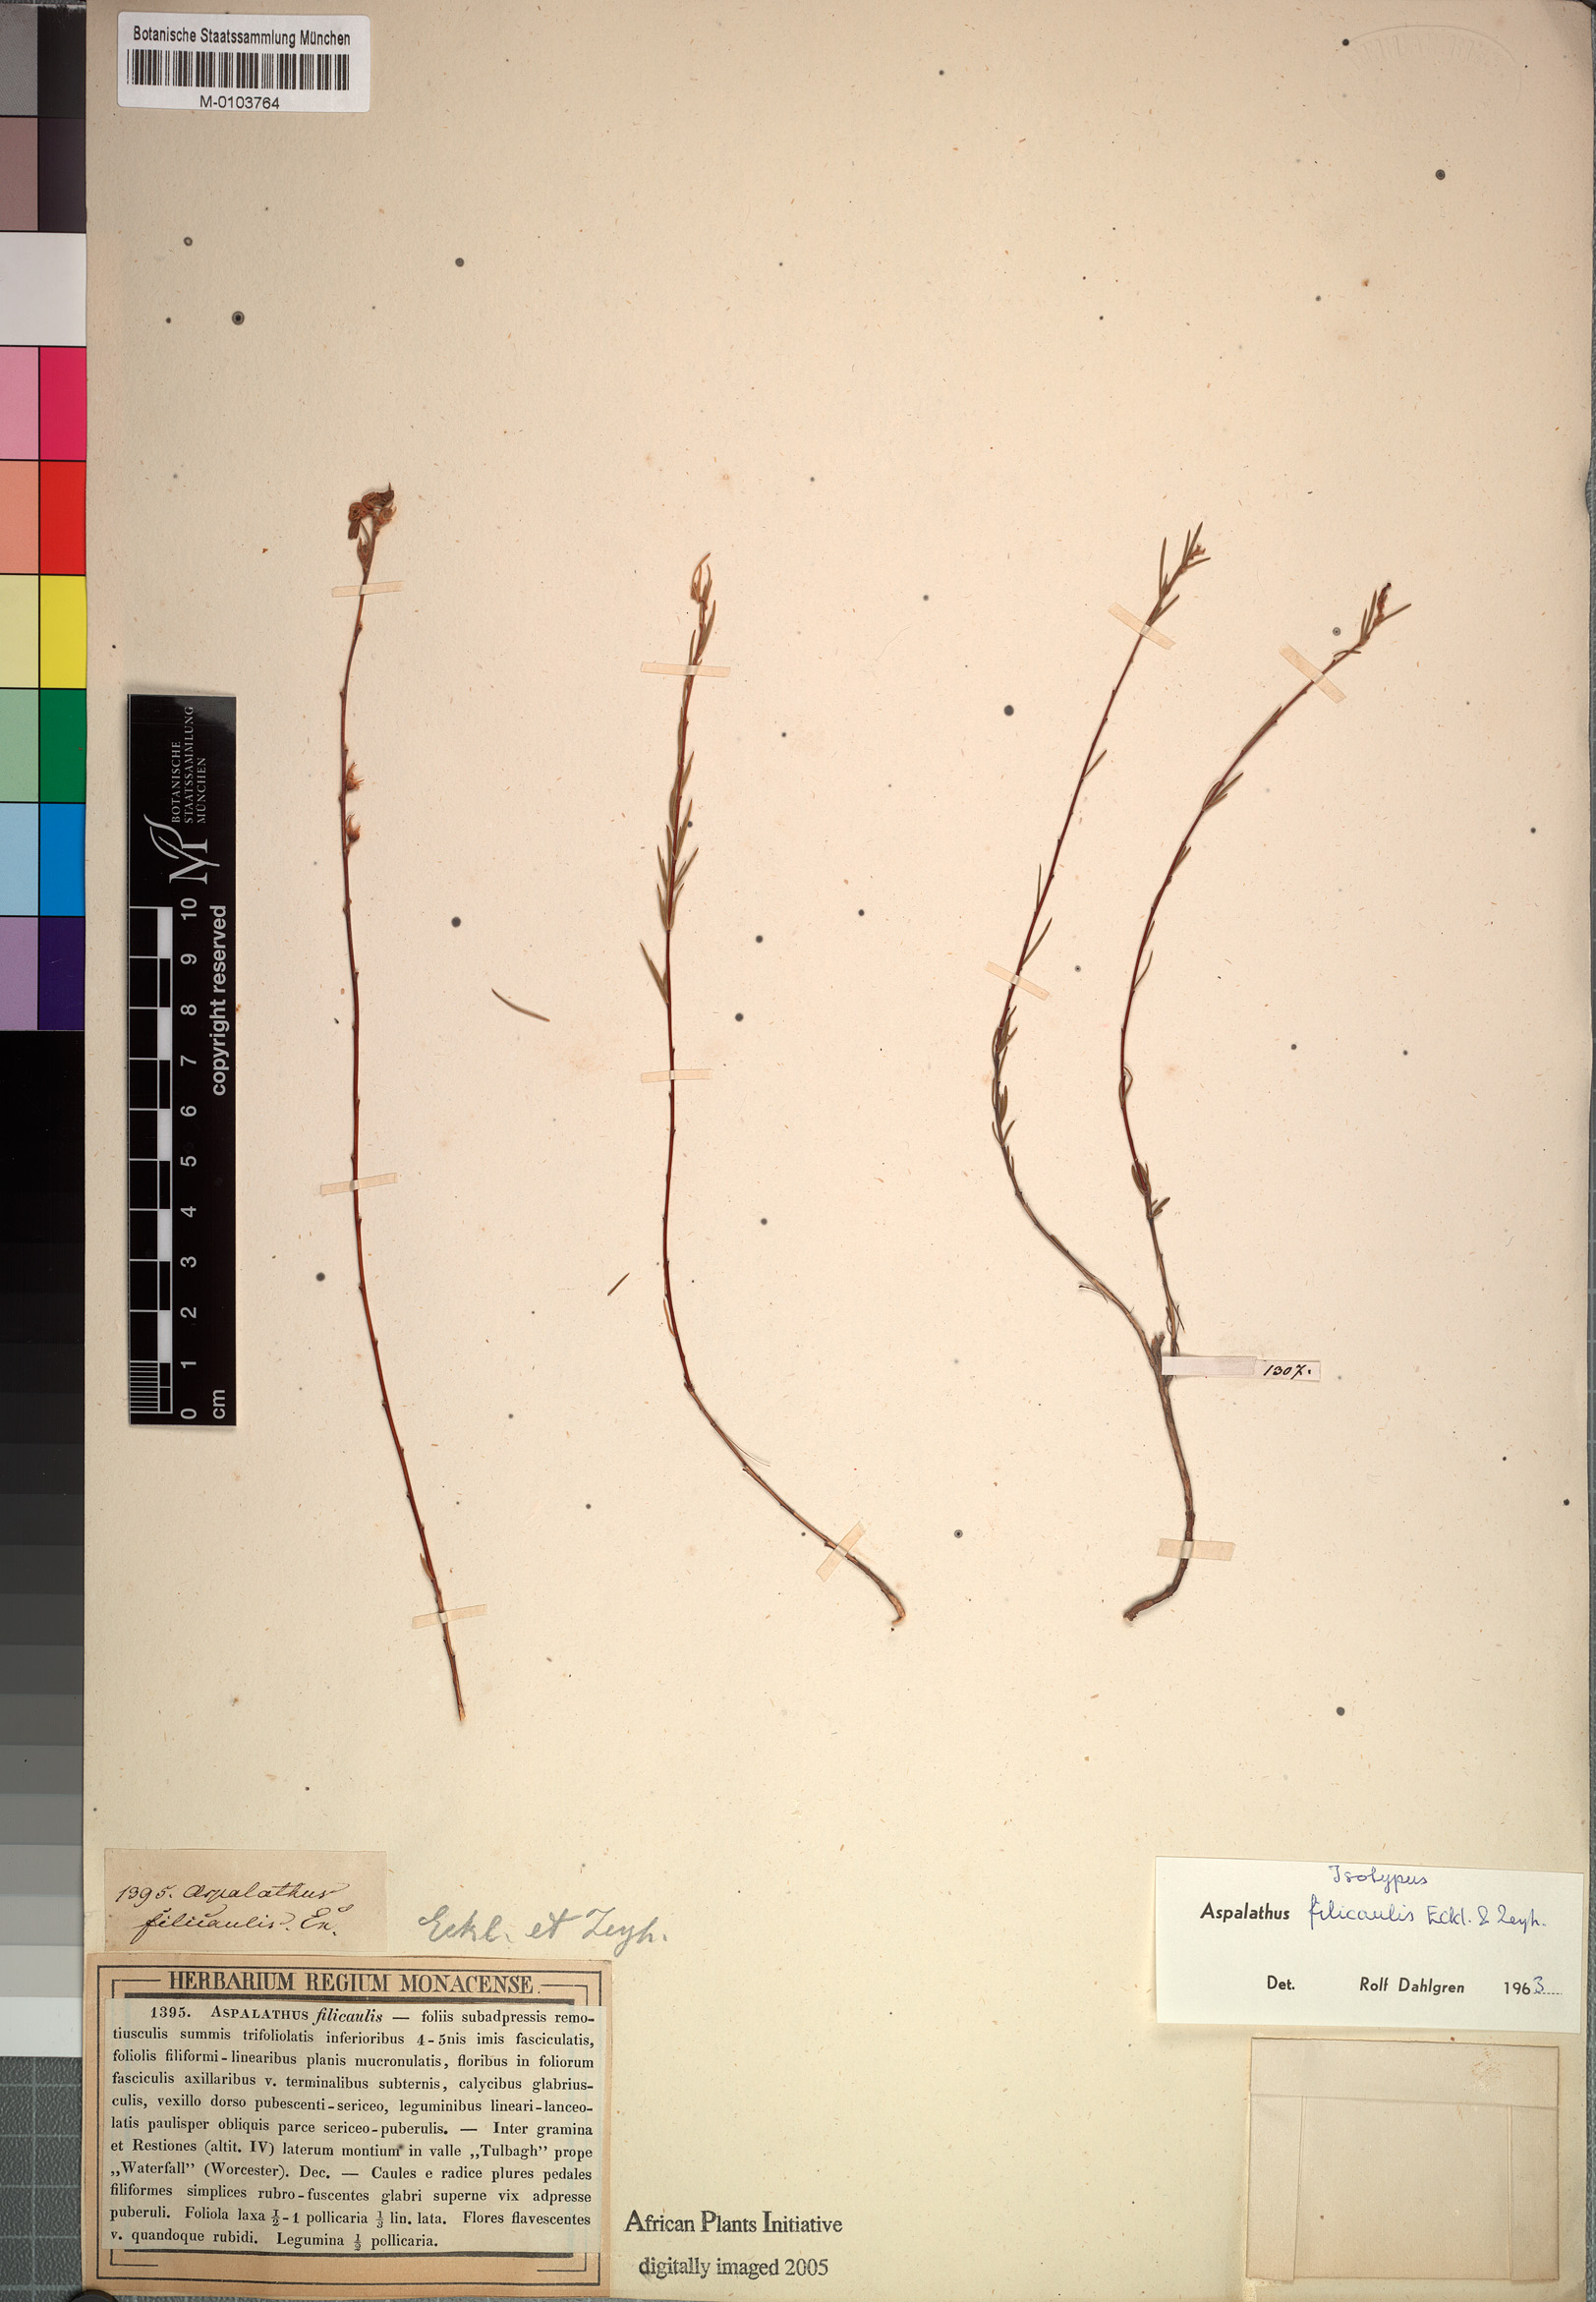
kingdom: Plantae
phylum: Tracheophyta
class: Magnoliopsida
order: Fabales
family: Fabaceae
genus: Aspalathus
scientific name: Aspalathus filicaulis
